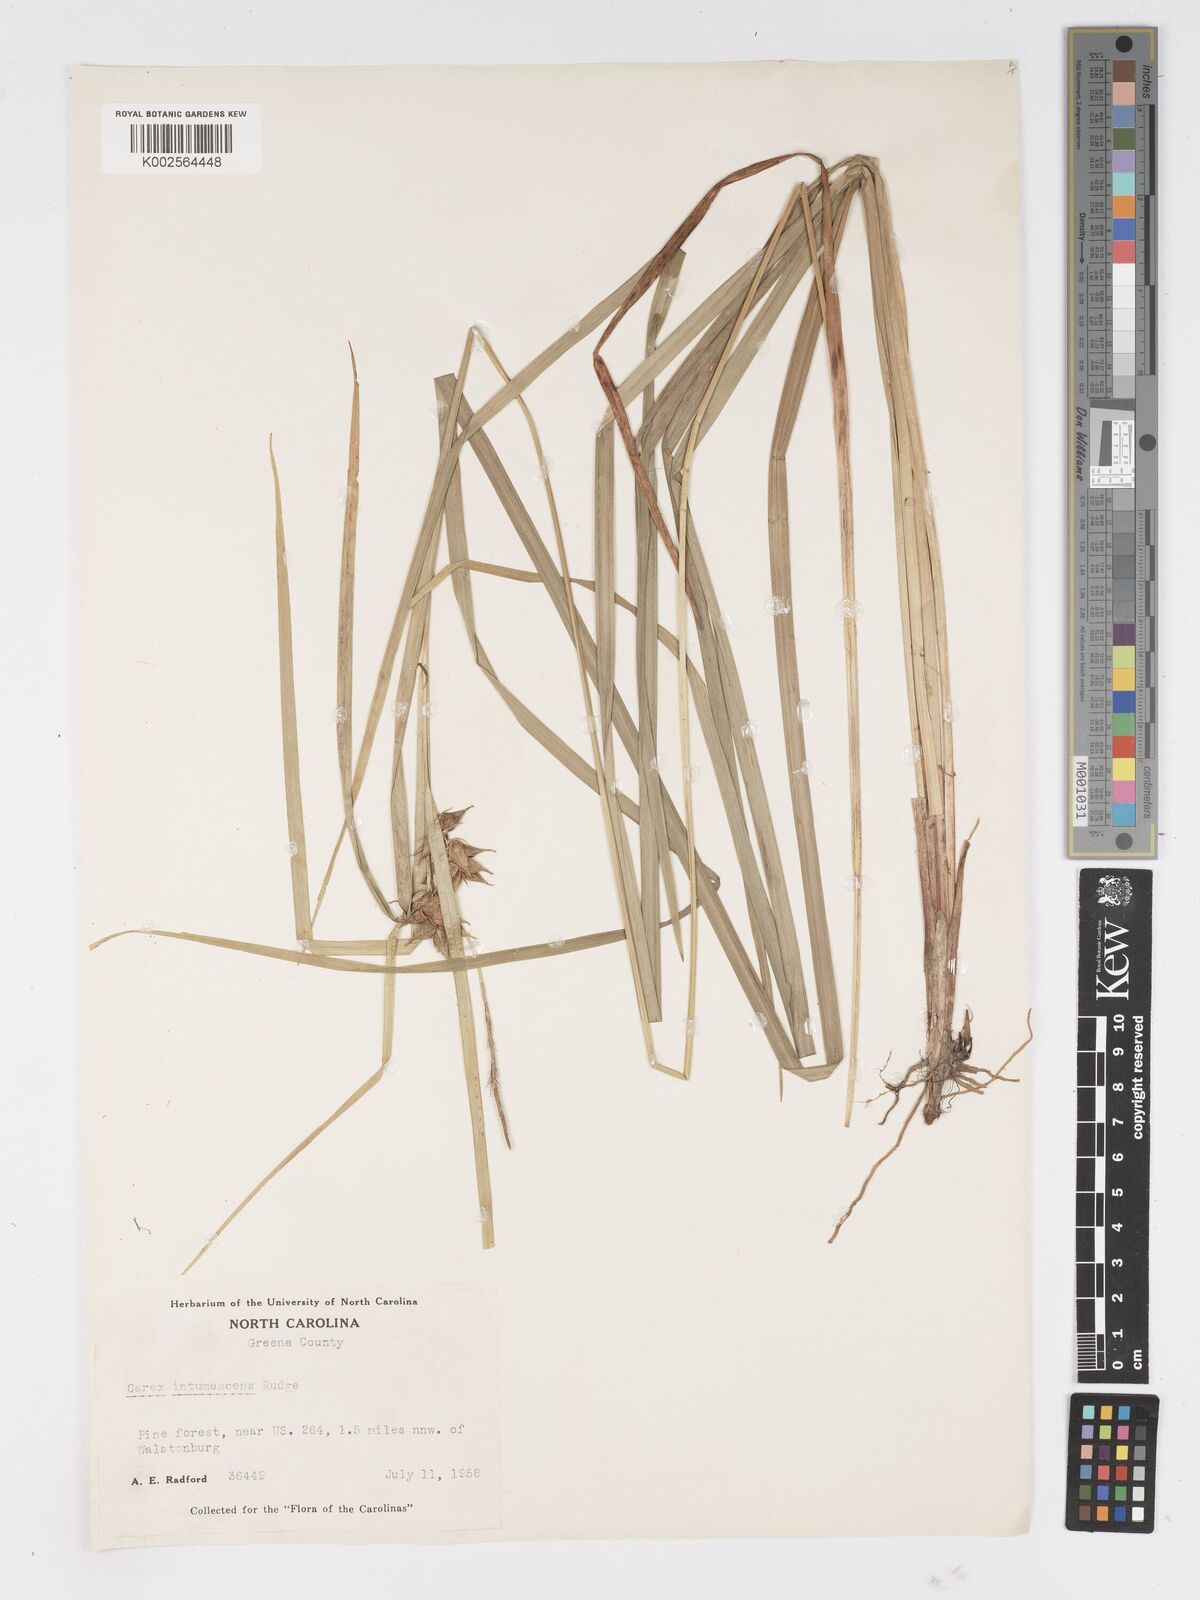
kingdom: Plantae
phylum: Tracheophyta
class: Liliopsida
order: Poales
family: Cyperaceae
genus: Carex
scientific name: Carex intumescens
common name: Greater bladder sedge
